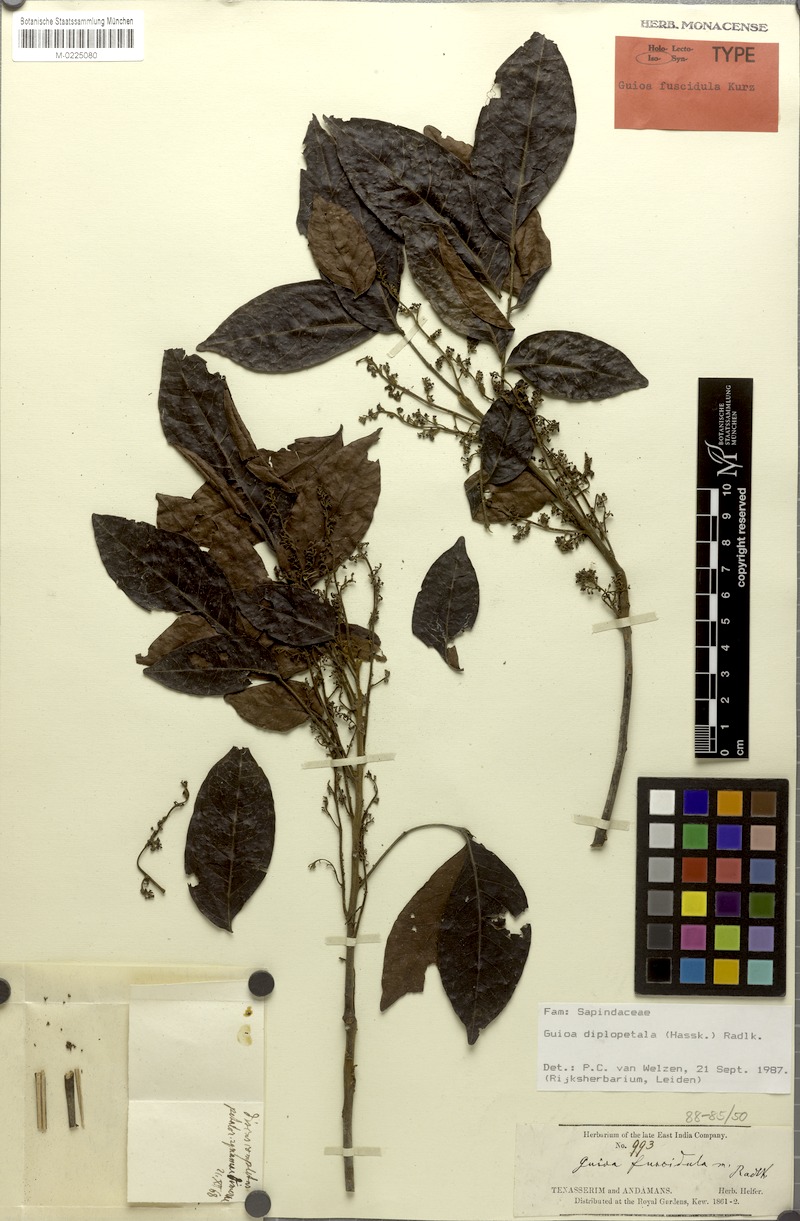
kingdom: Plantae
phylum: Tracheophyta
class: Magnoliopsida
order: Sapindales
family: Sapindaceae
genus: Guioa
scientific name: Guioa diplopetala
